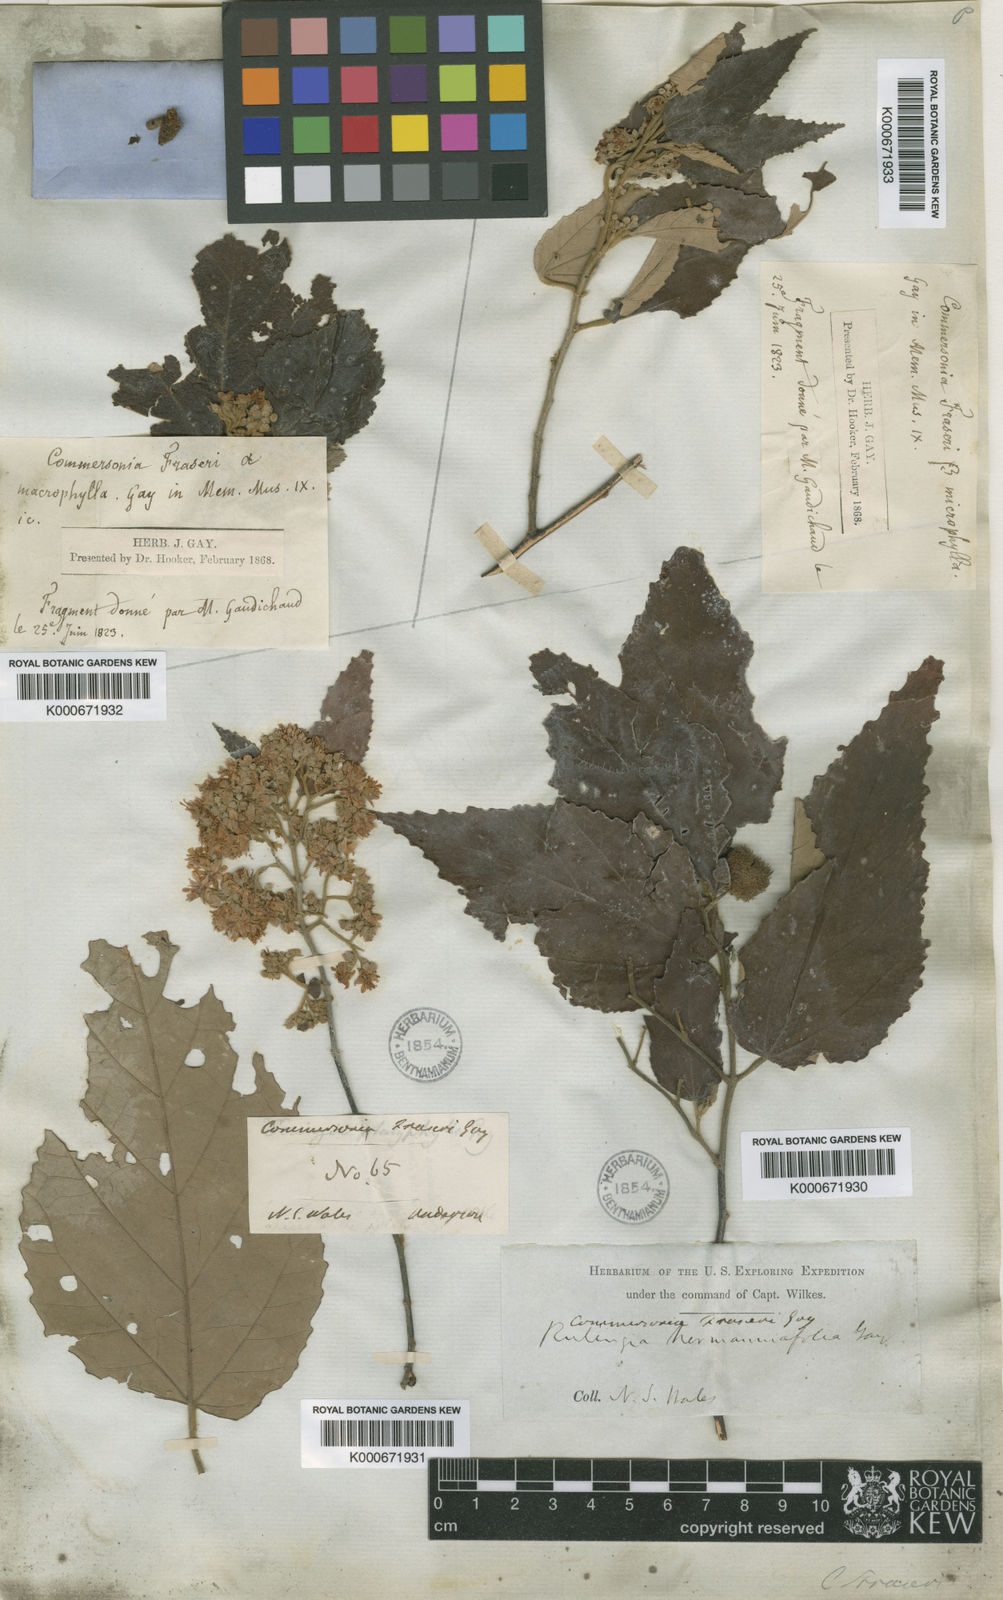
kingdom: Plantae
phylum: Tracheophyta
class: Magnoliopsida
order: Malvales
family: Malvaceae
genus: Androcalva
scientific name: Androcalva fraseri
